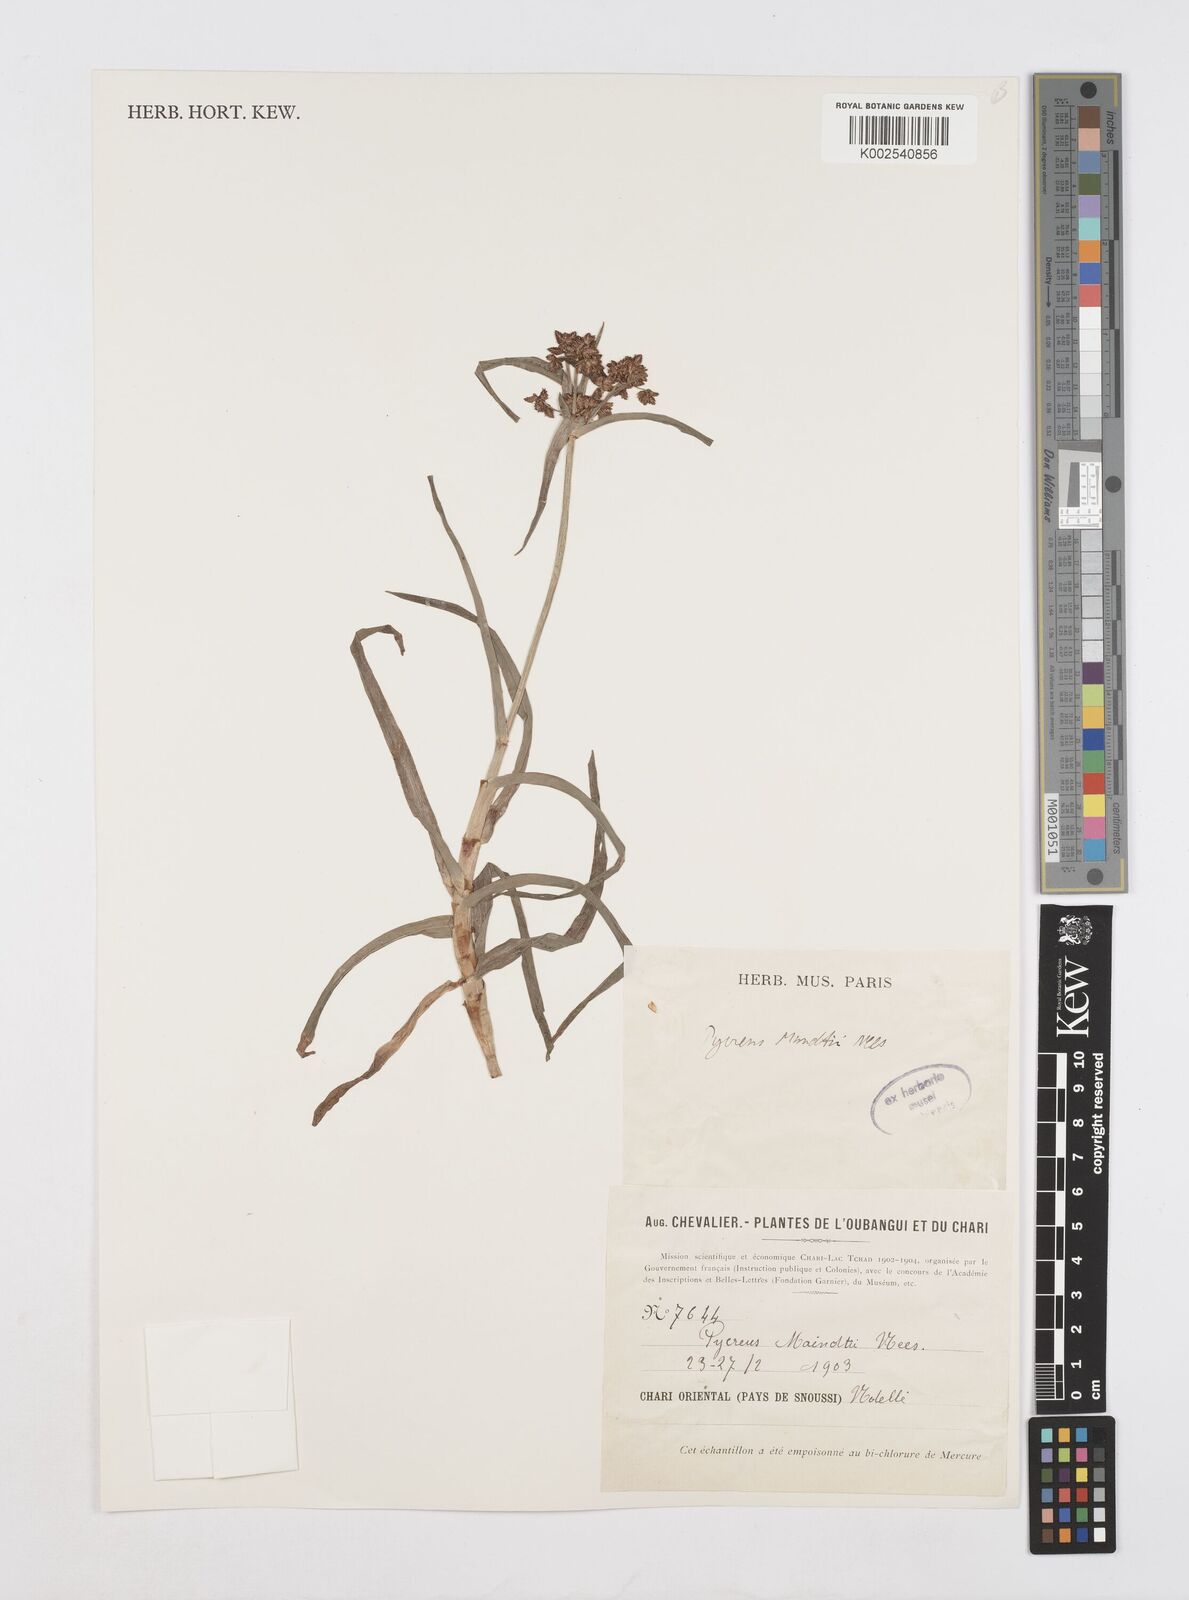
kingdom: Plantae
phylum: Tracheophyta
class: Liliopsida
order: Poales
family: Cyperaceae
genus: Cyperus
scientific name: Cyperus mundii
